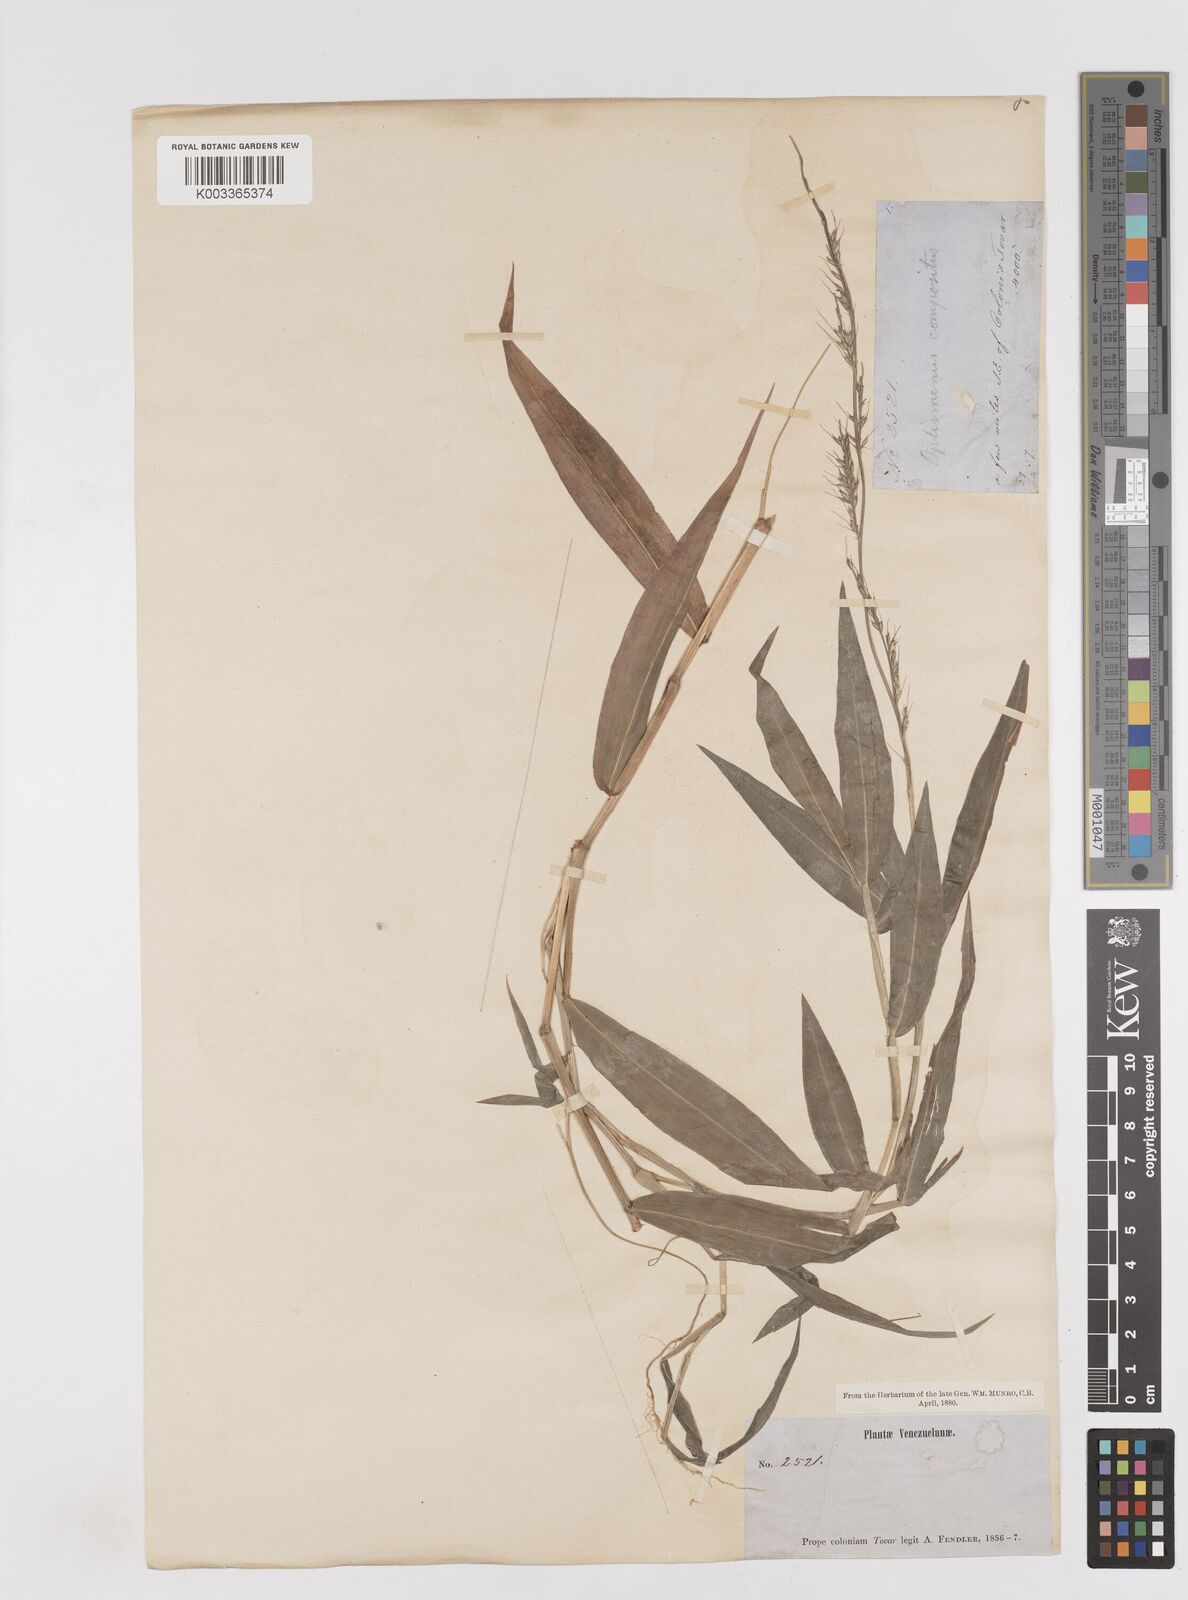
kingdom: Plantae
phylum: Tracheophyta
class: Liliopsida
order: Poales
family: Poaceae
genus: Oplismenus
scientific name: Oplismenus compositus
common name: Running mountain grass
